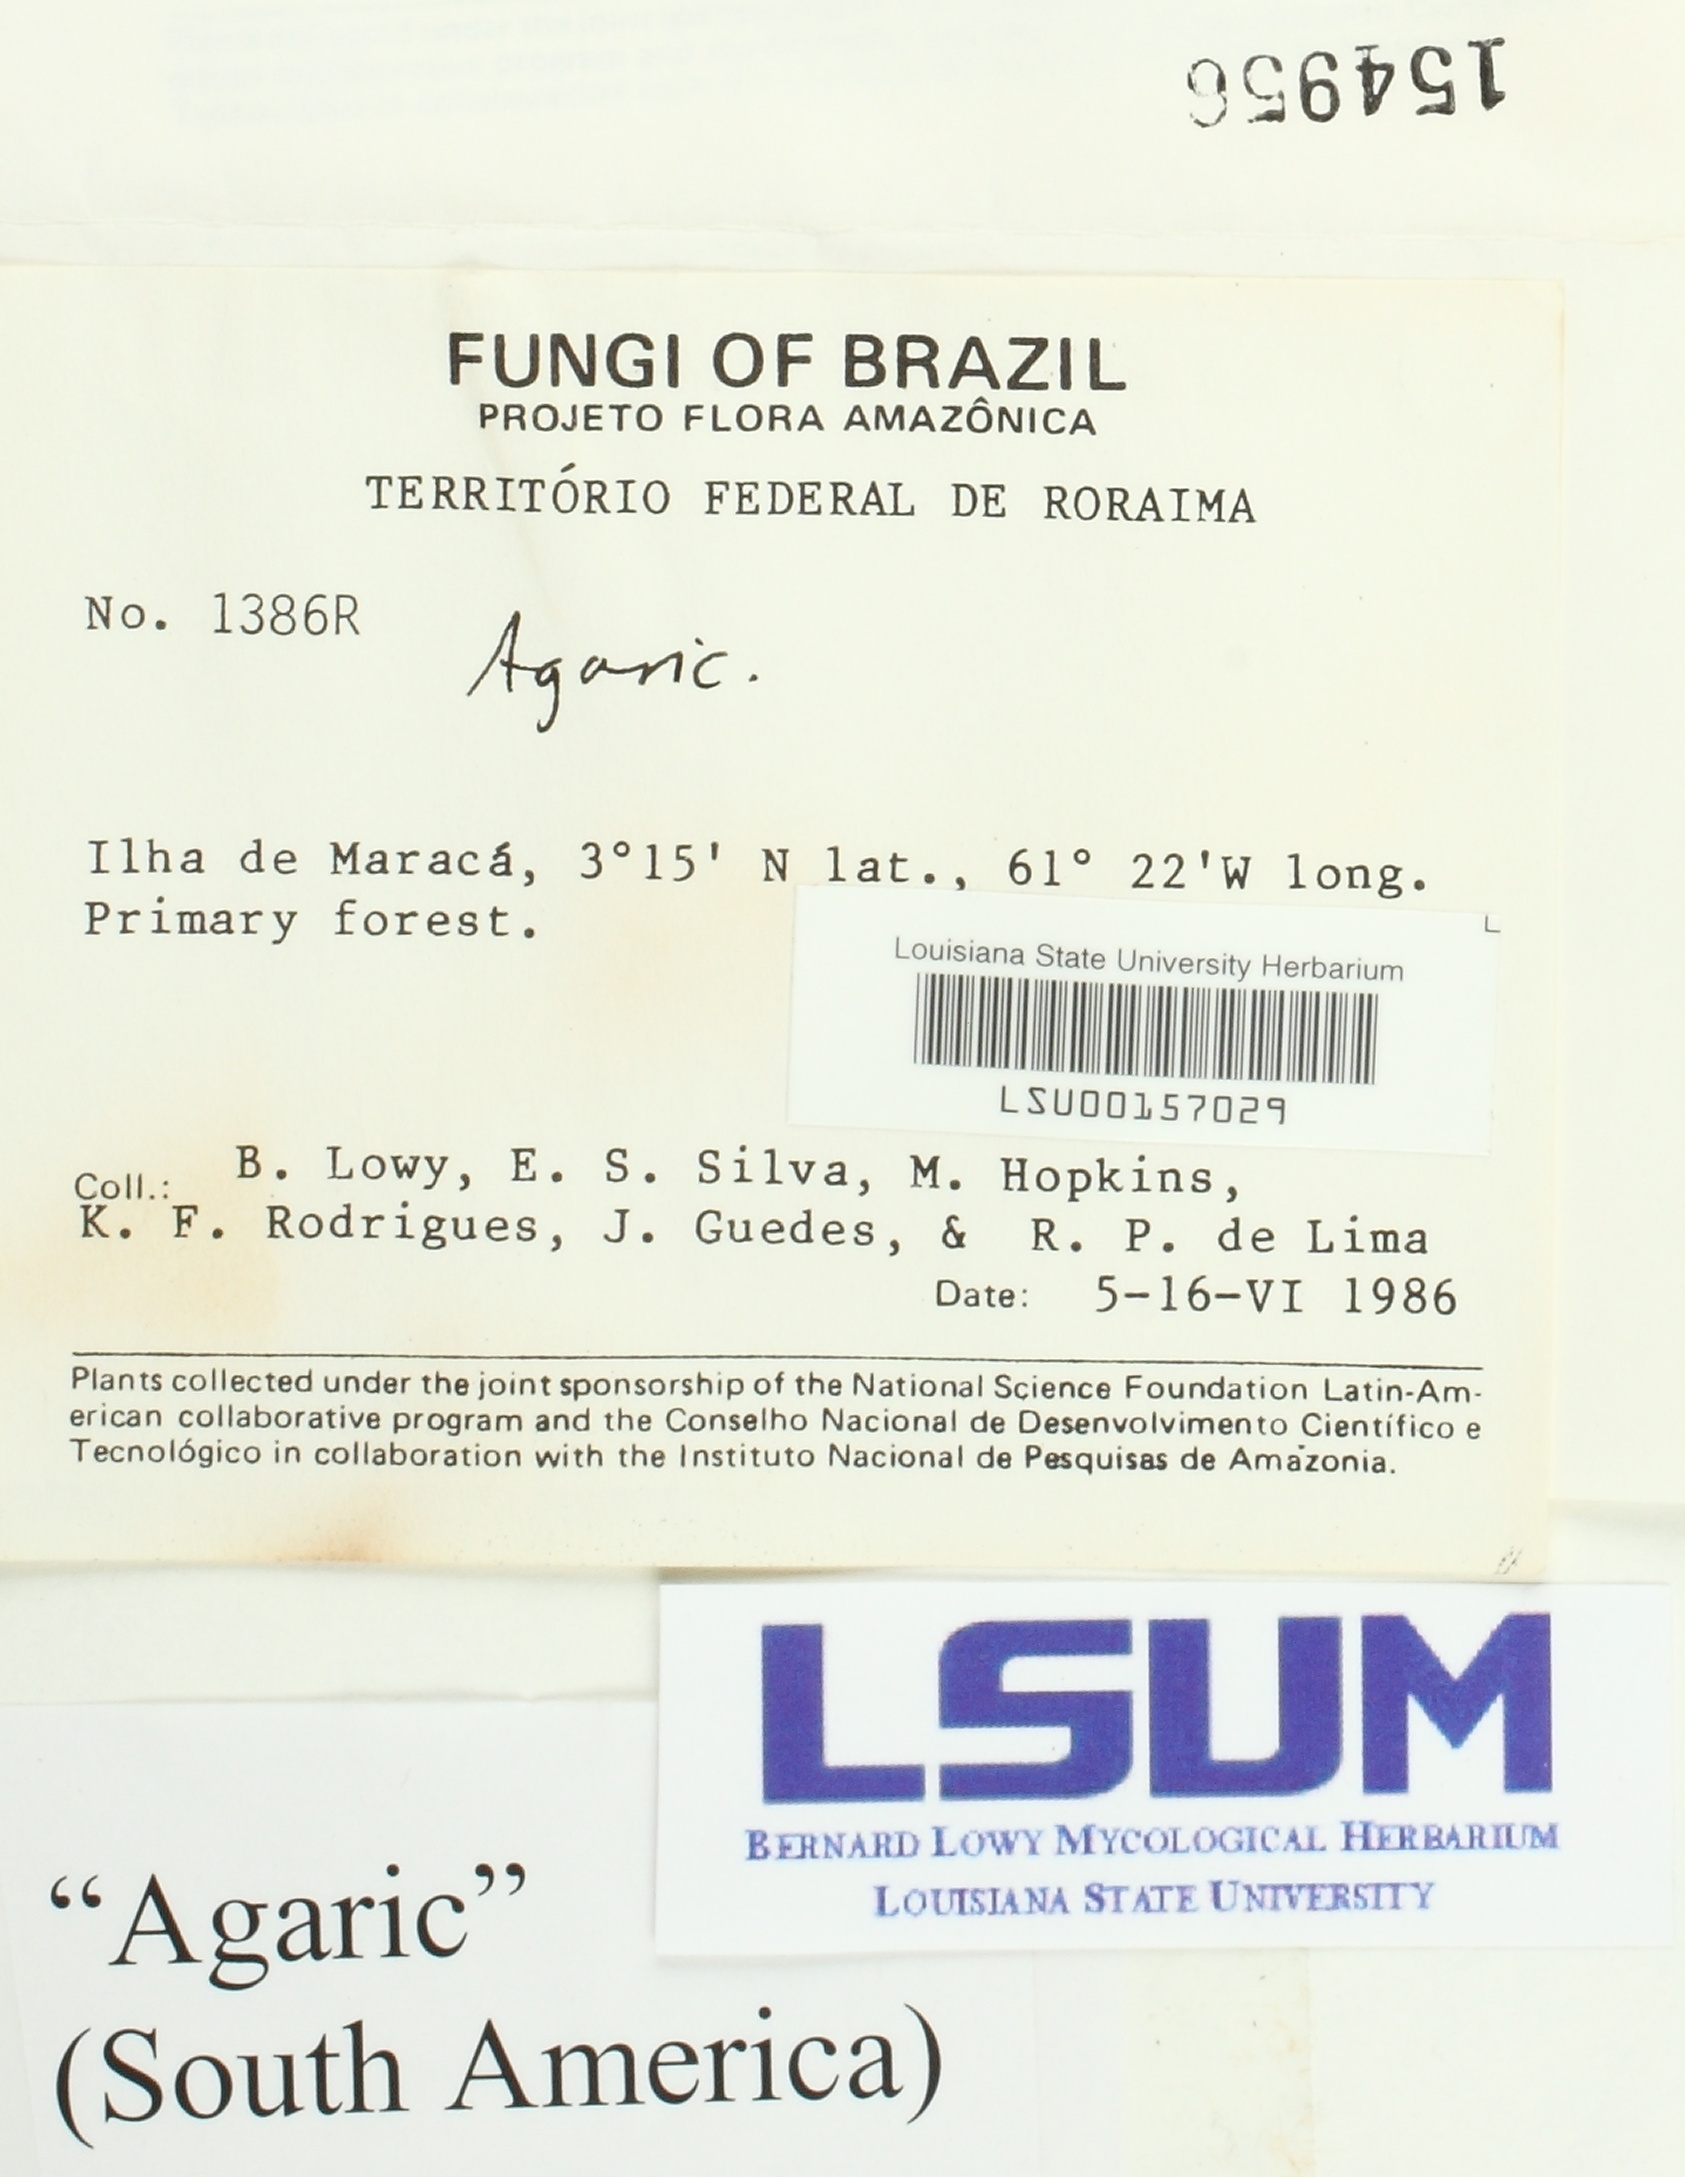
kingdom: Fungi
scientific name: Fungi
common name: Fungi
